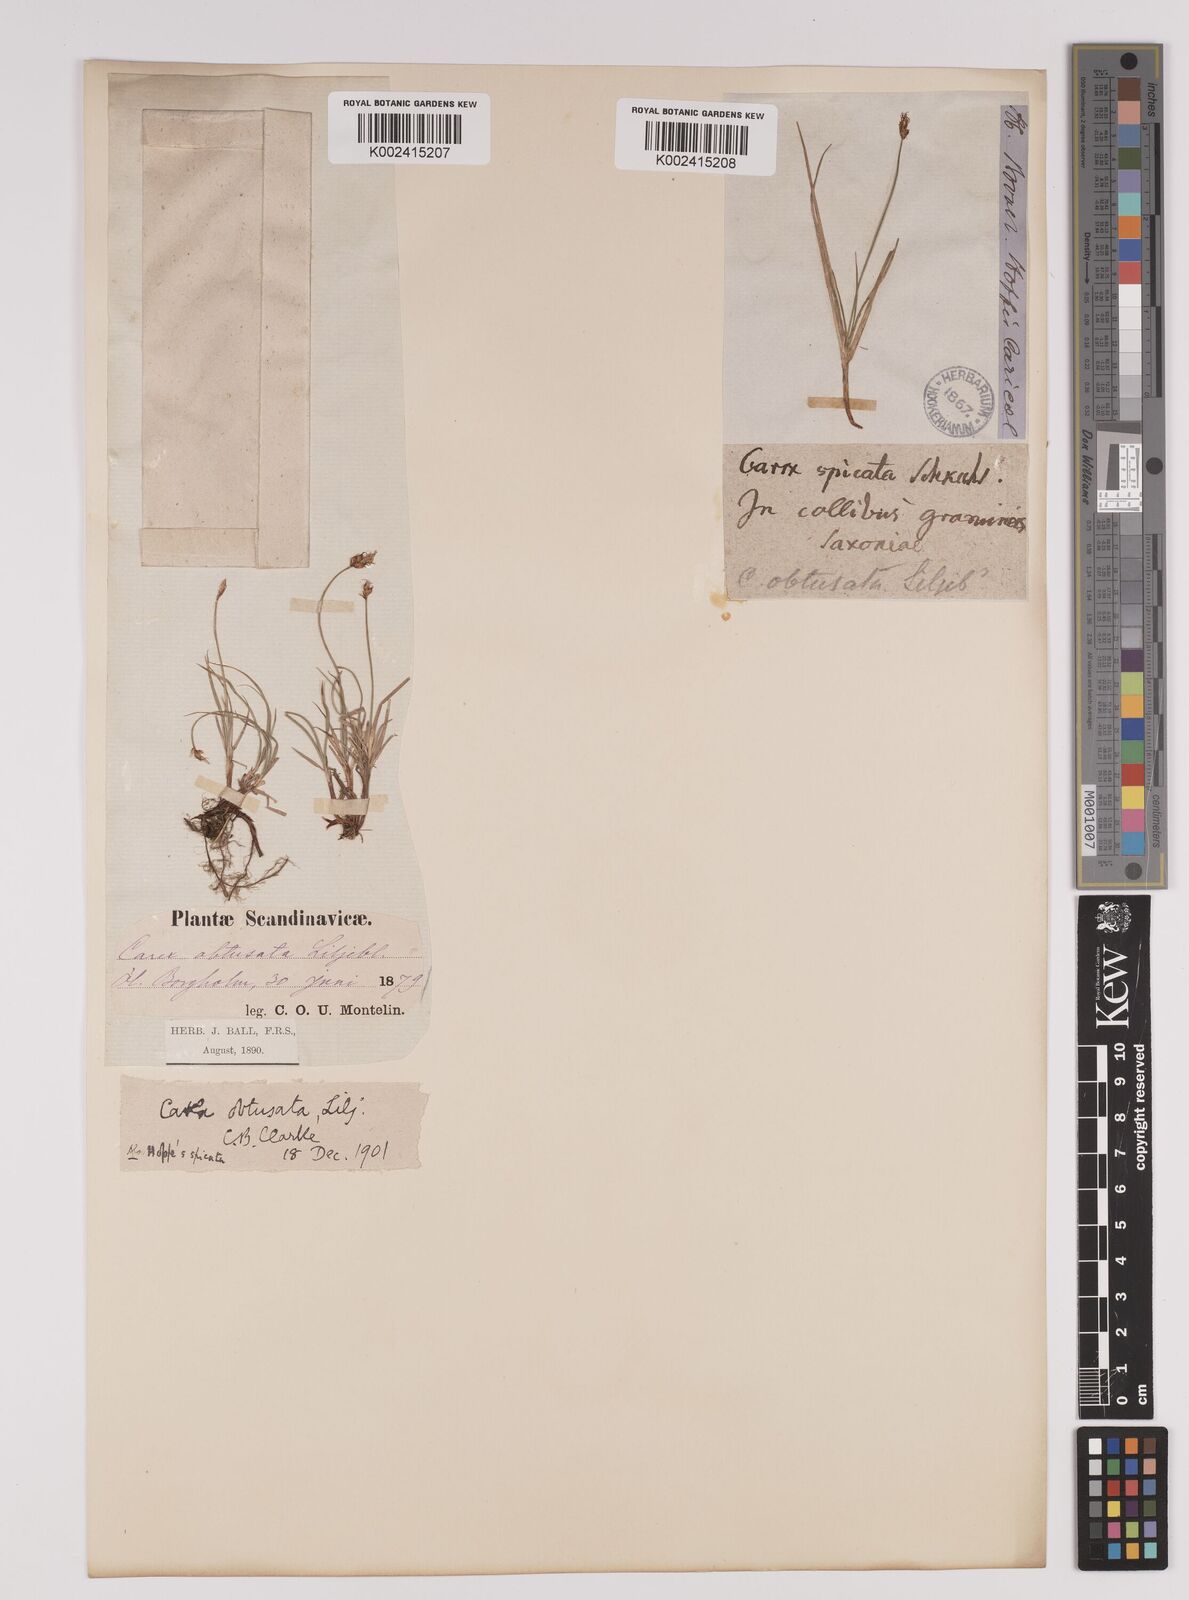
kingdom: Plantae
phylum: Tracheophyta
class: Liliopsida
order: Poales
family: Cyperaceae
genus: Carex
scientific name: Carex obtusata
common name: Blunt sedge
